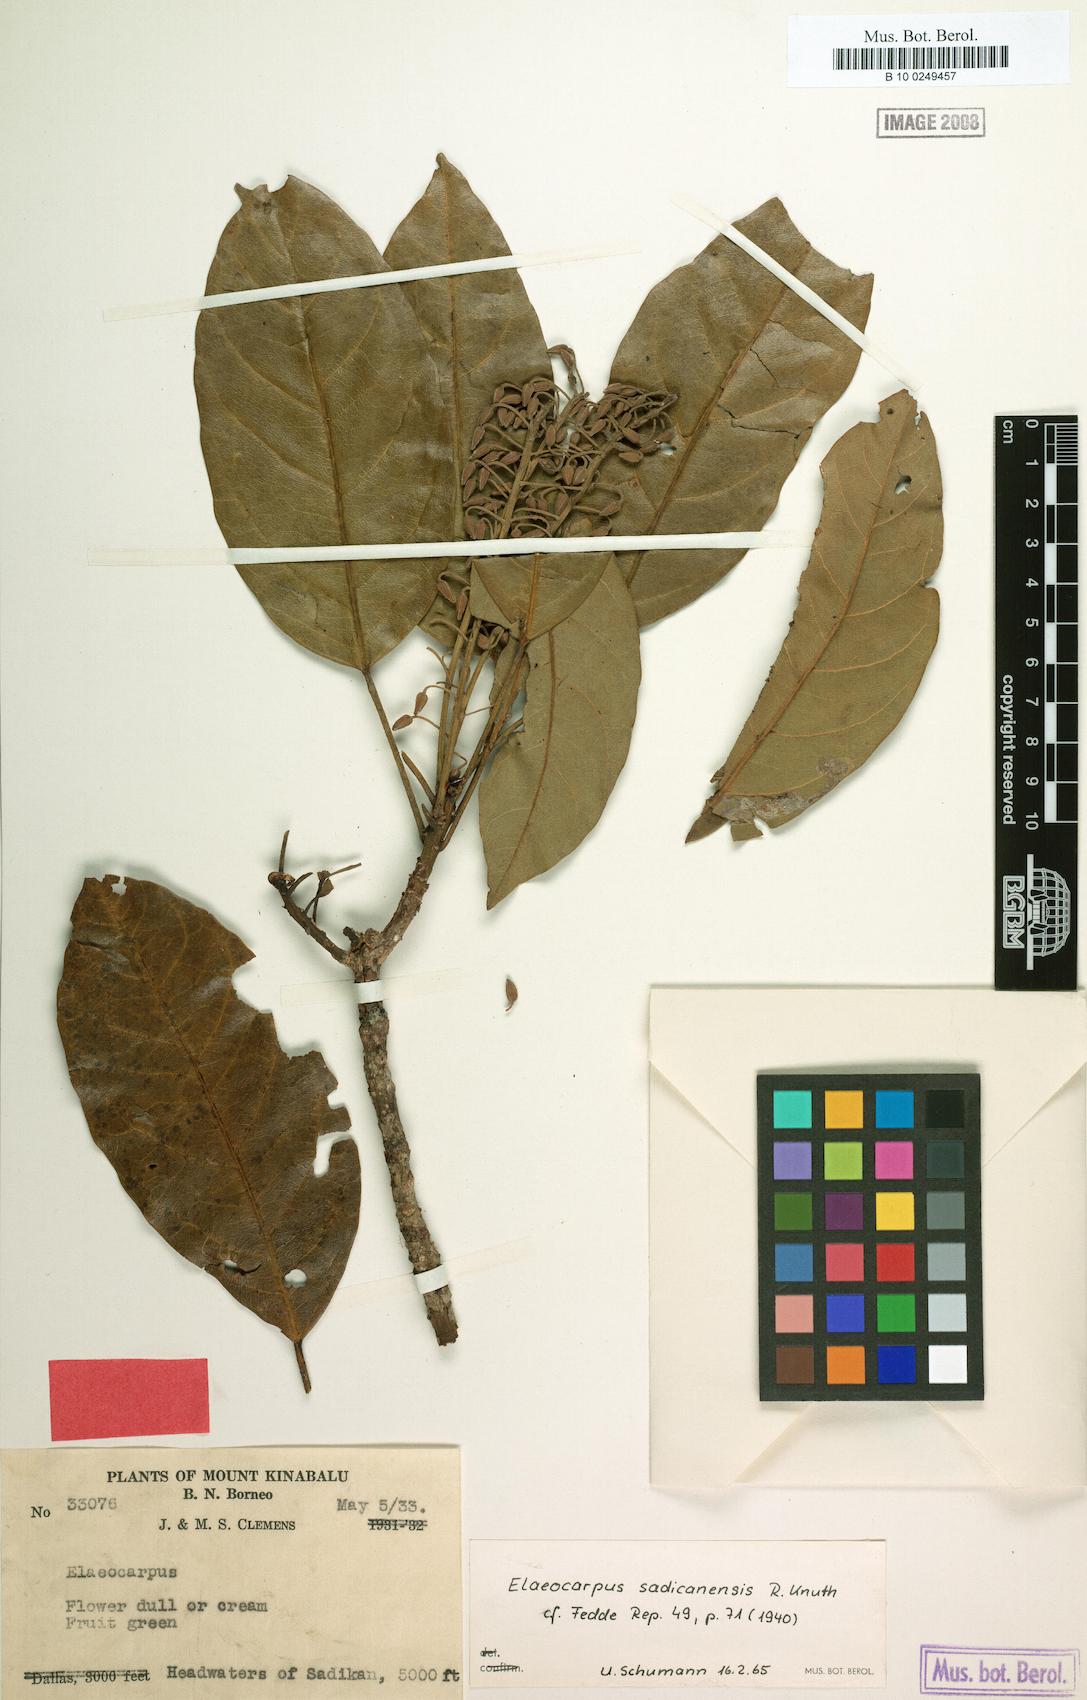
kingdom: Plantae
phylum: Tracheophyta
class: Magnoliopsida
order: Oxalidales
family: Elaeocarpaceae
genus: Elaeocarpus
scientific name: Elaeocarpus sadikanensis
